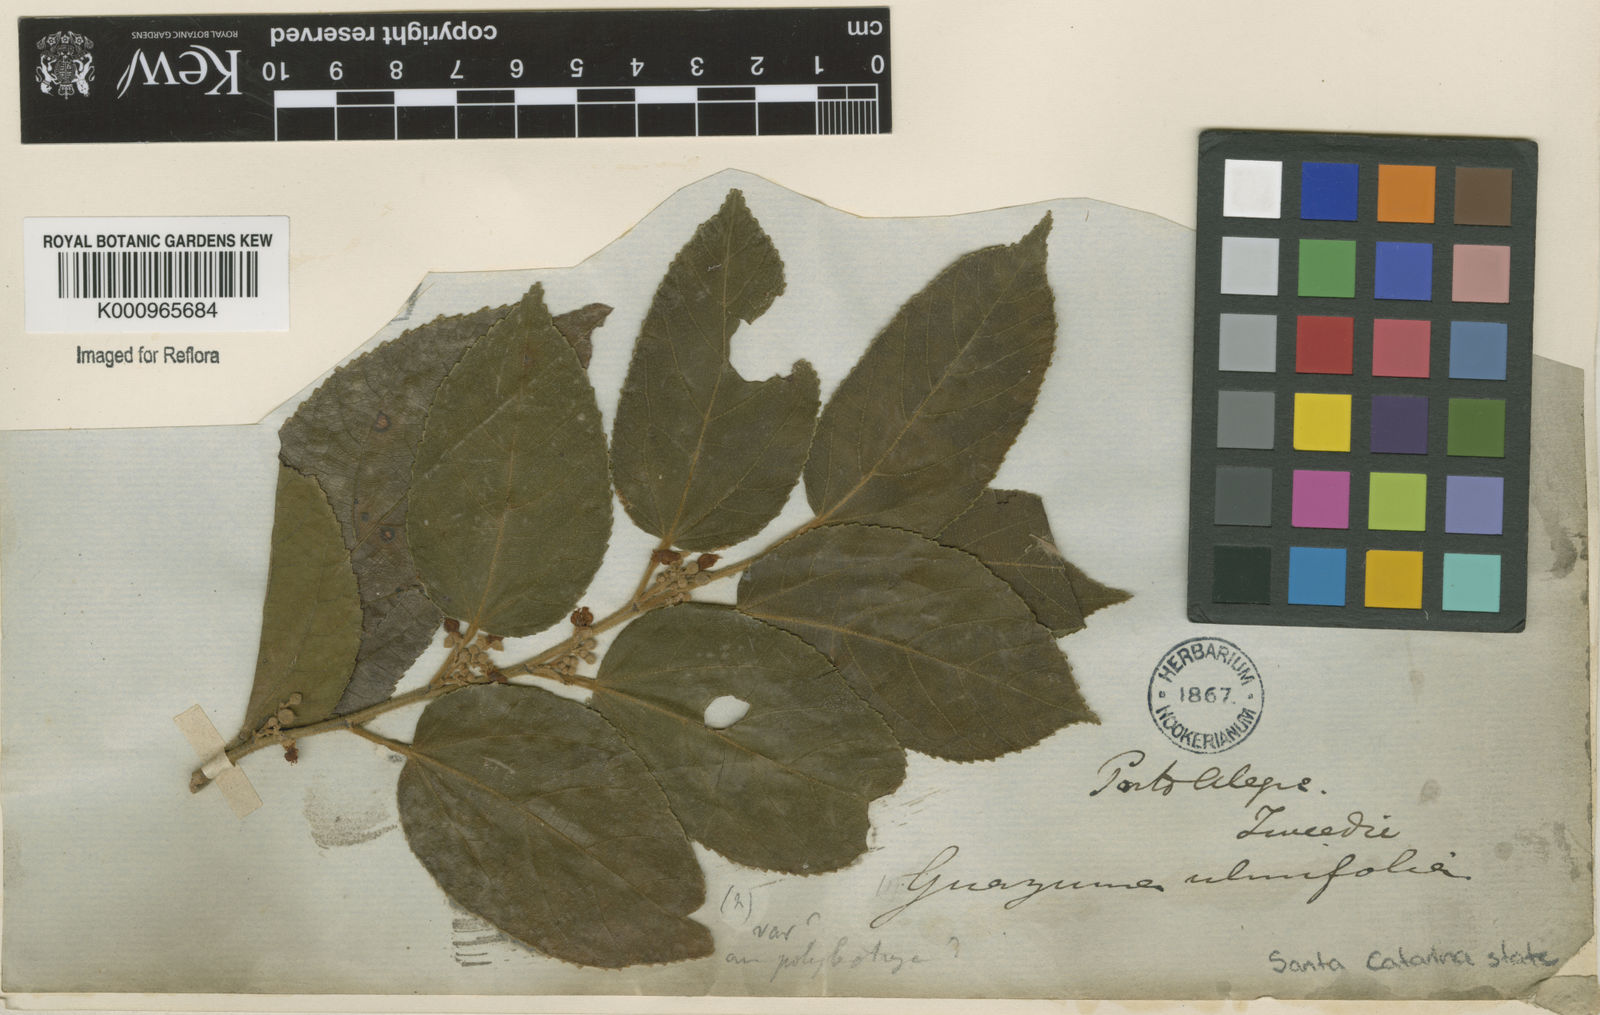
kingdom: Plantae
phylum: Tracheophyta
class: Magnoliopsida
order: Malvales
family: Malvaceae
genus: Guazuma
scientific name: Guazuma ulmifolia
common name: Bastard-cedar
